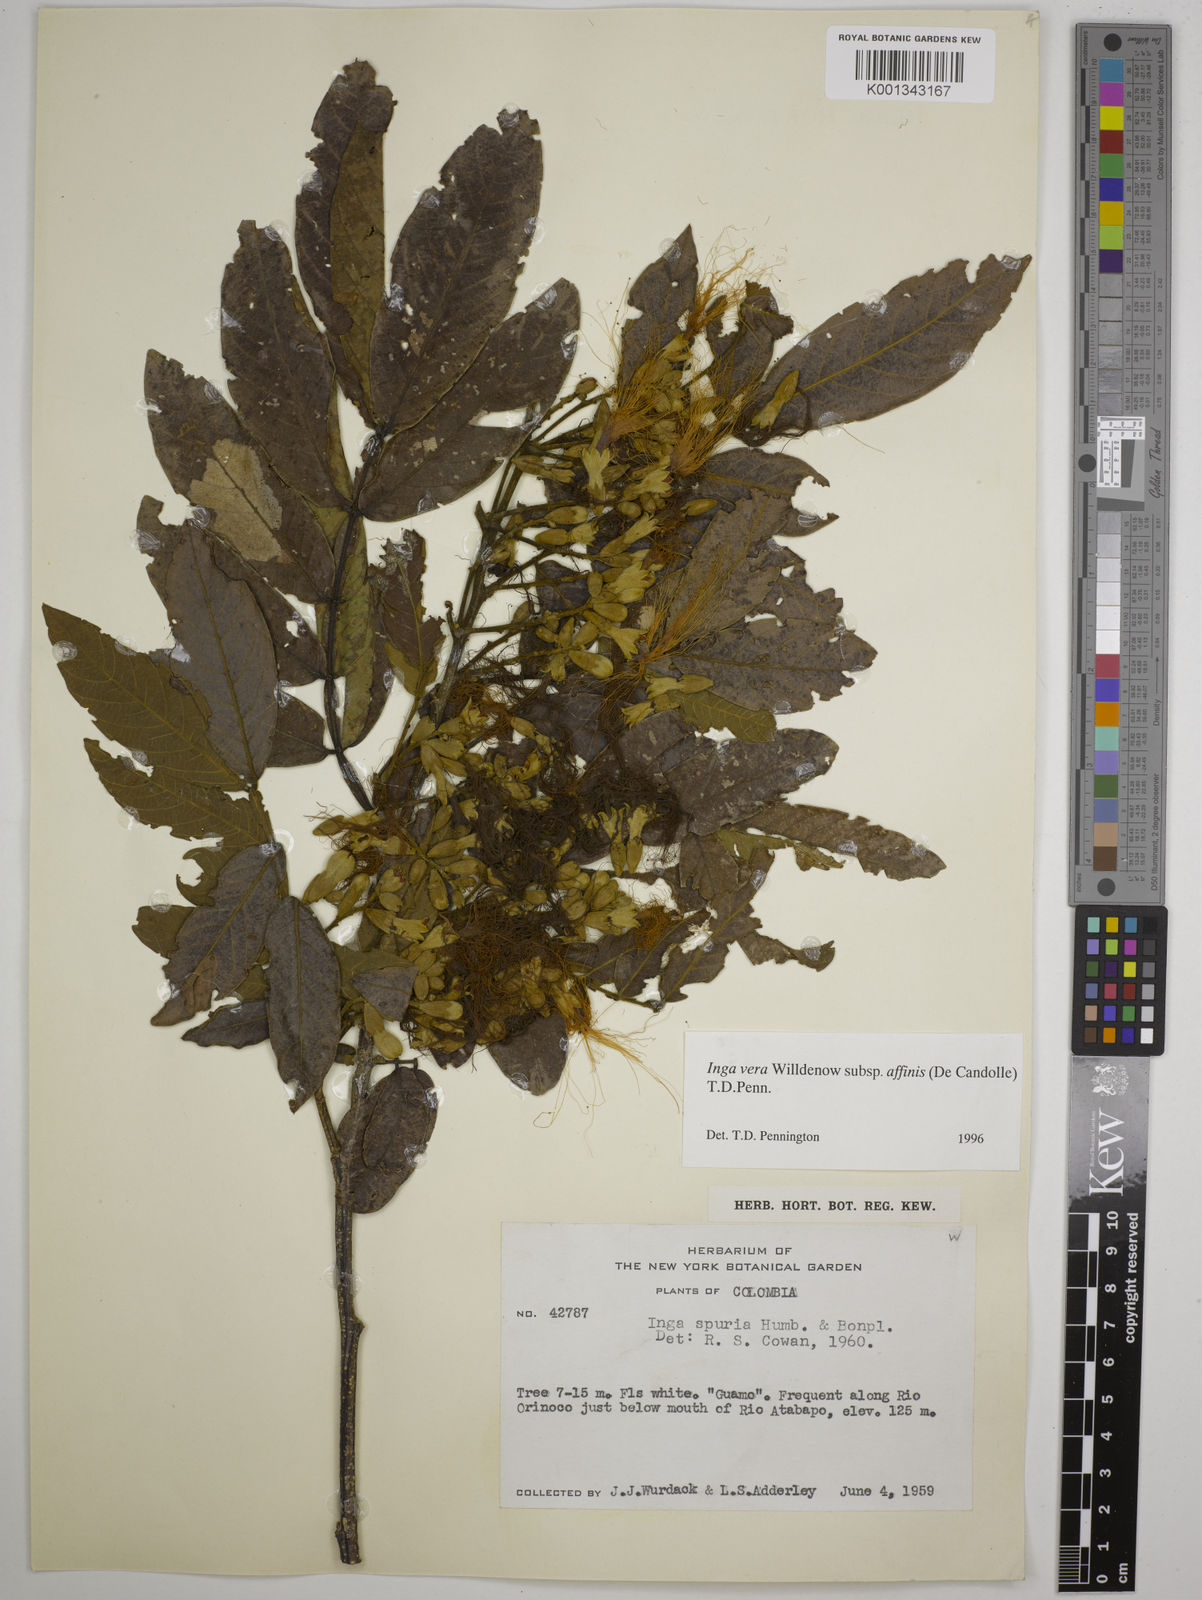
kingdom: Plantae
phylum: Tracheophyta
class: Magnoliopsida
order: Fabales
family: Fabaceae
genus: Inga
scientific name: Inga affinis
